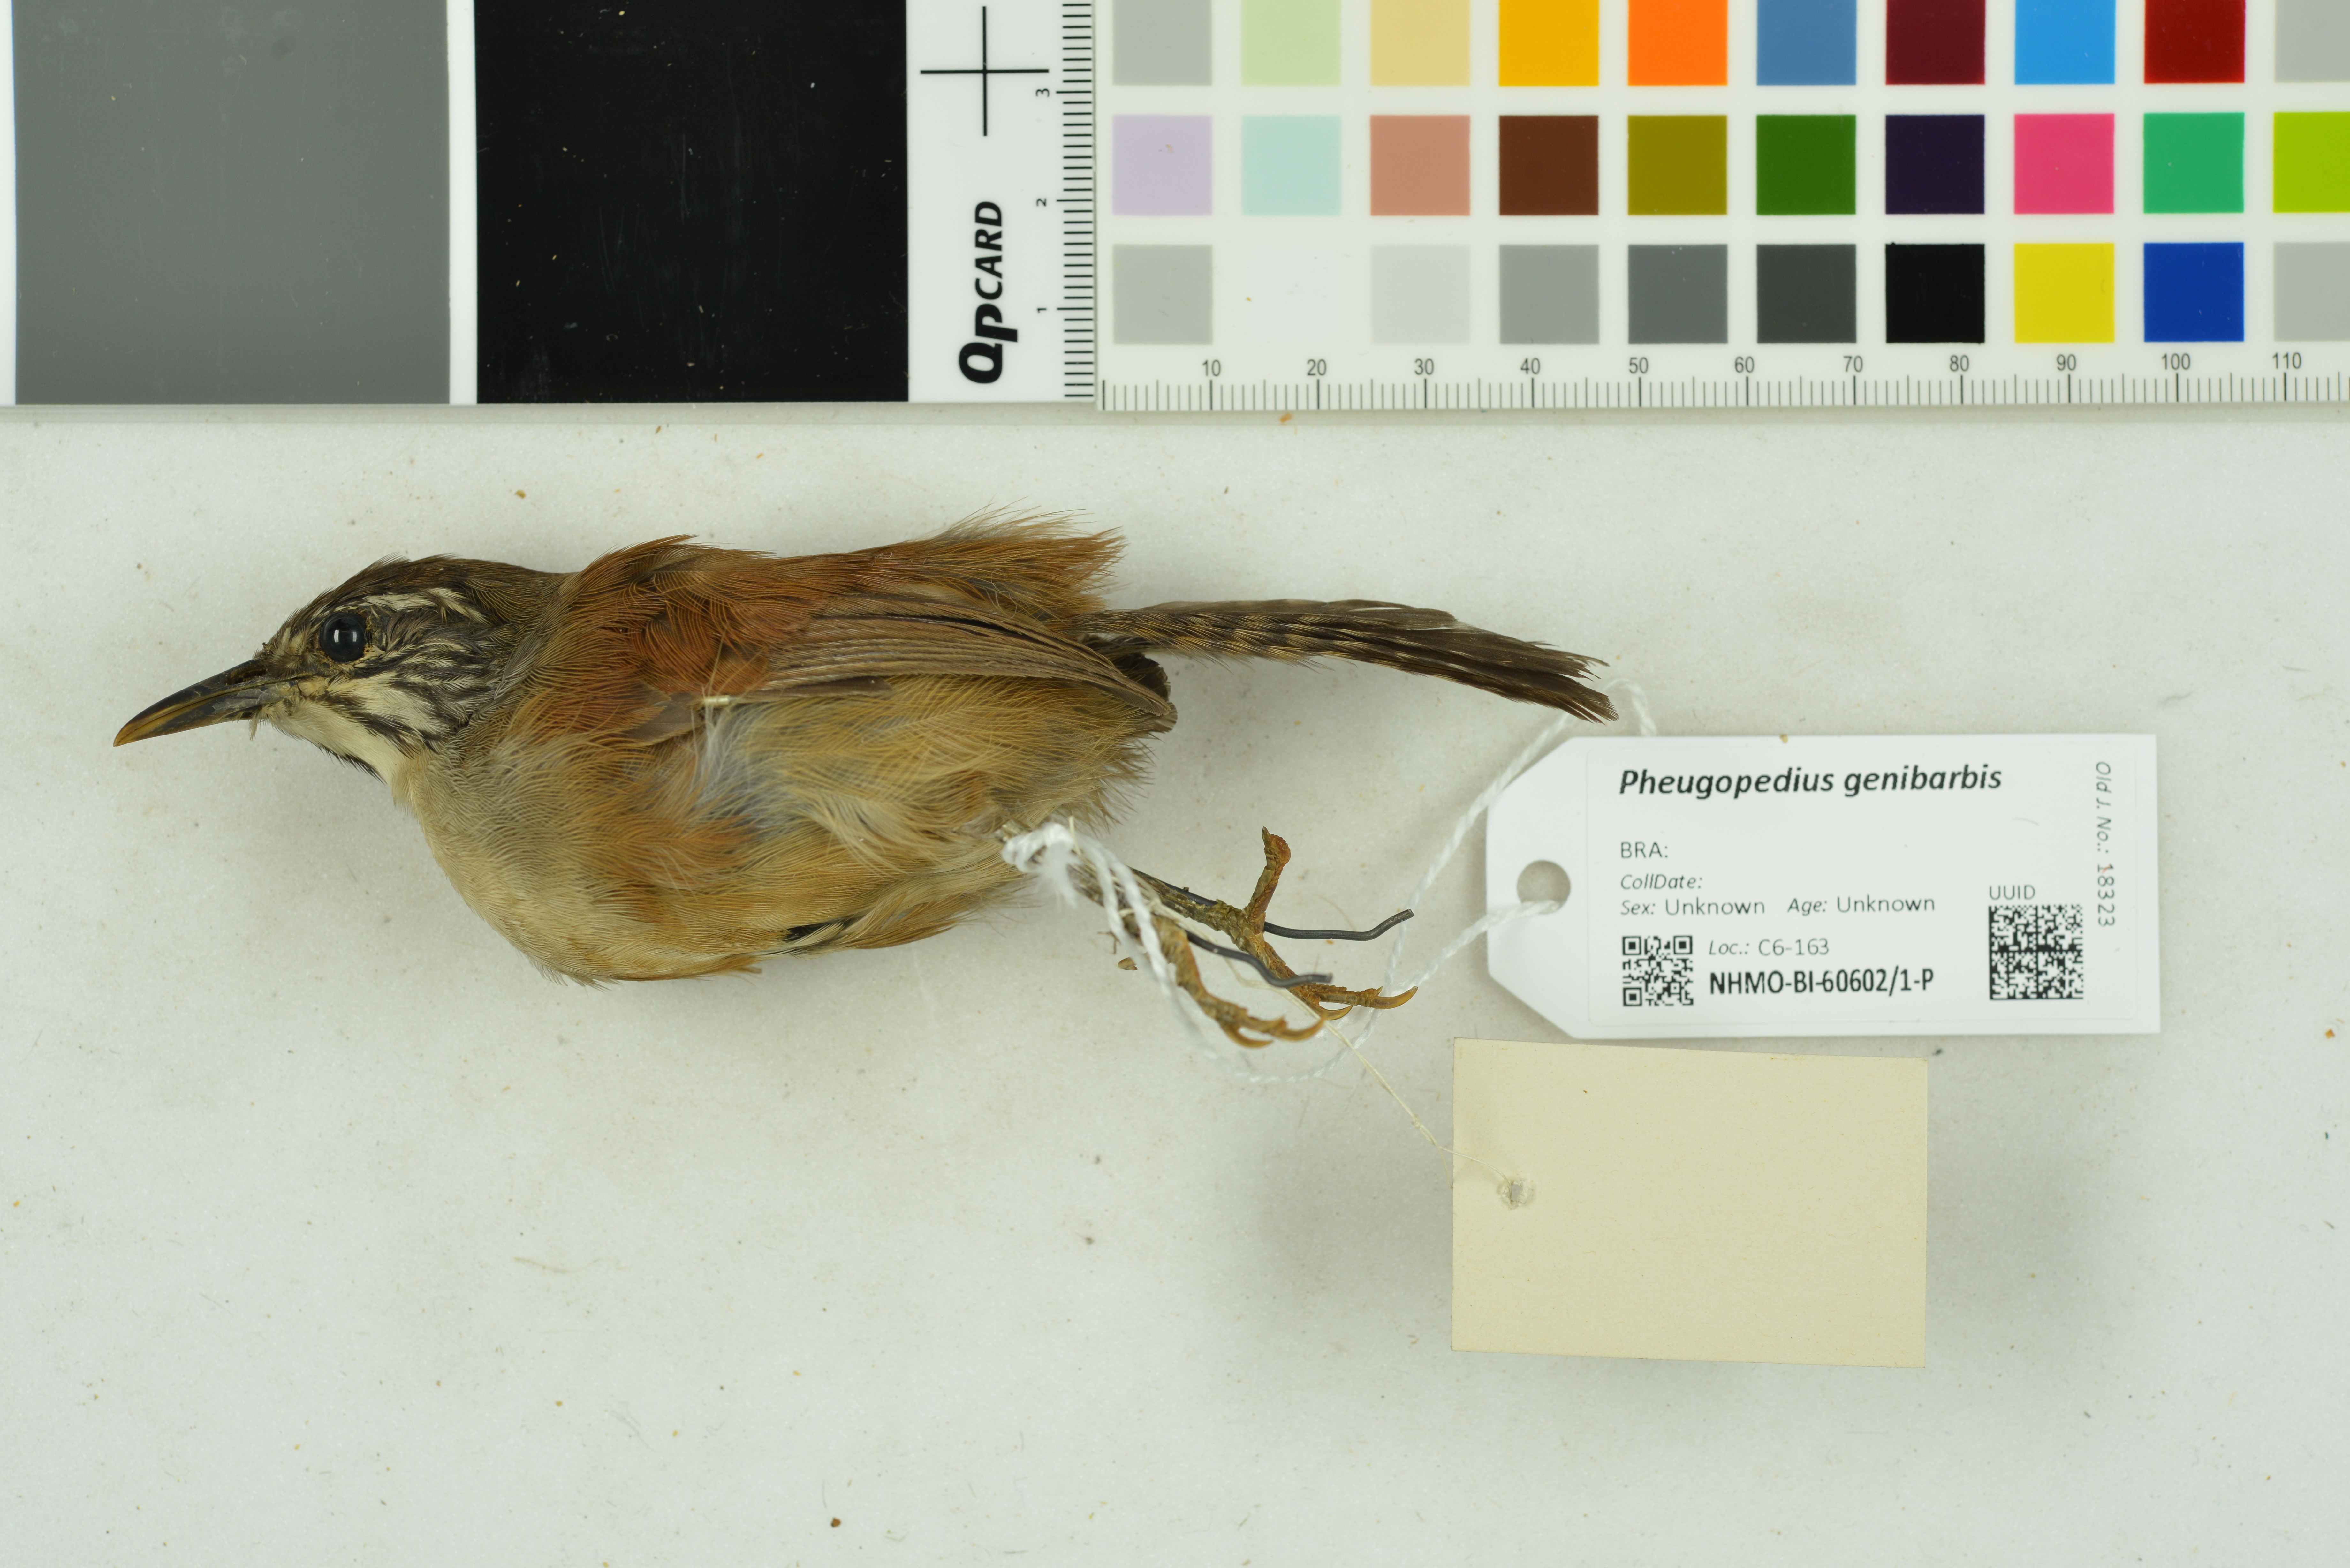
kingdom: Animalia
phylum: Chordata
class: Aves
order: Passeriformes
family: Troglodytidae
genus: Pheugopedius
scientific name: Pheugopedius genibarbis
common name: Moustached wren
